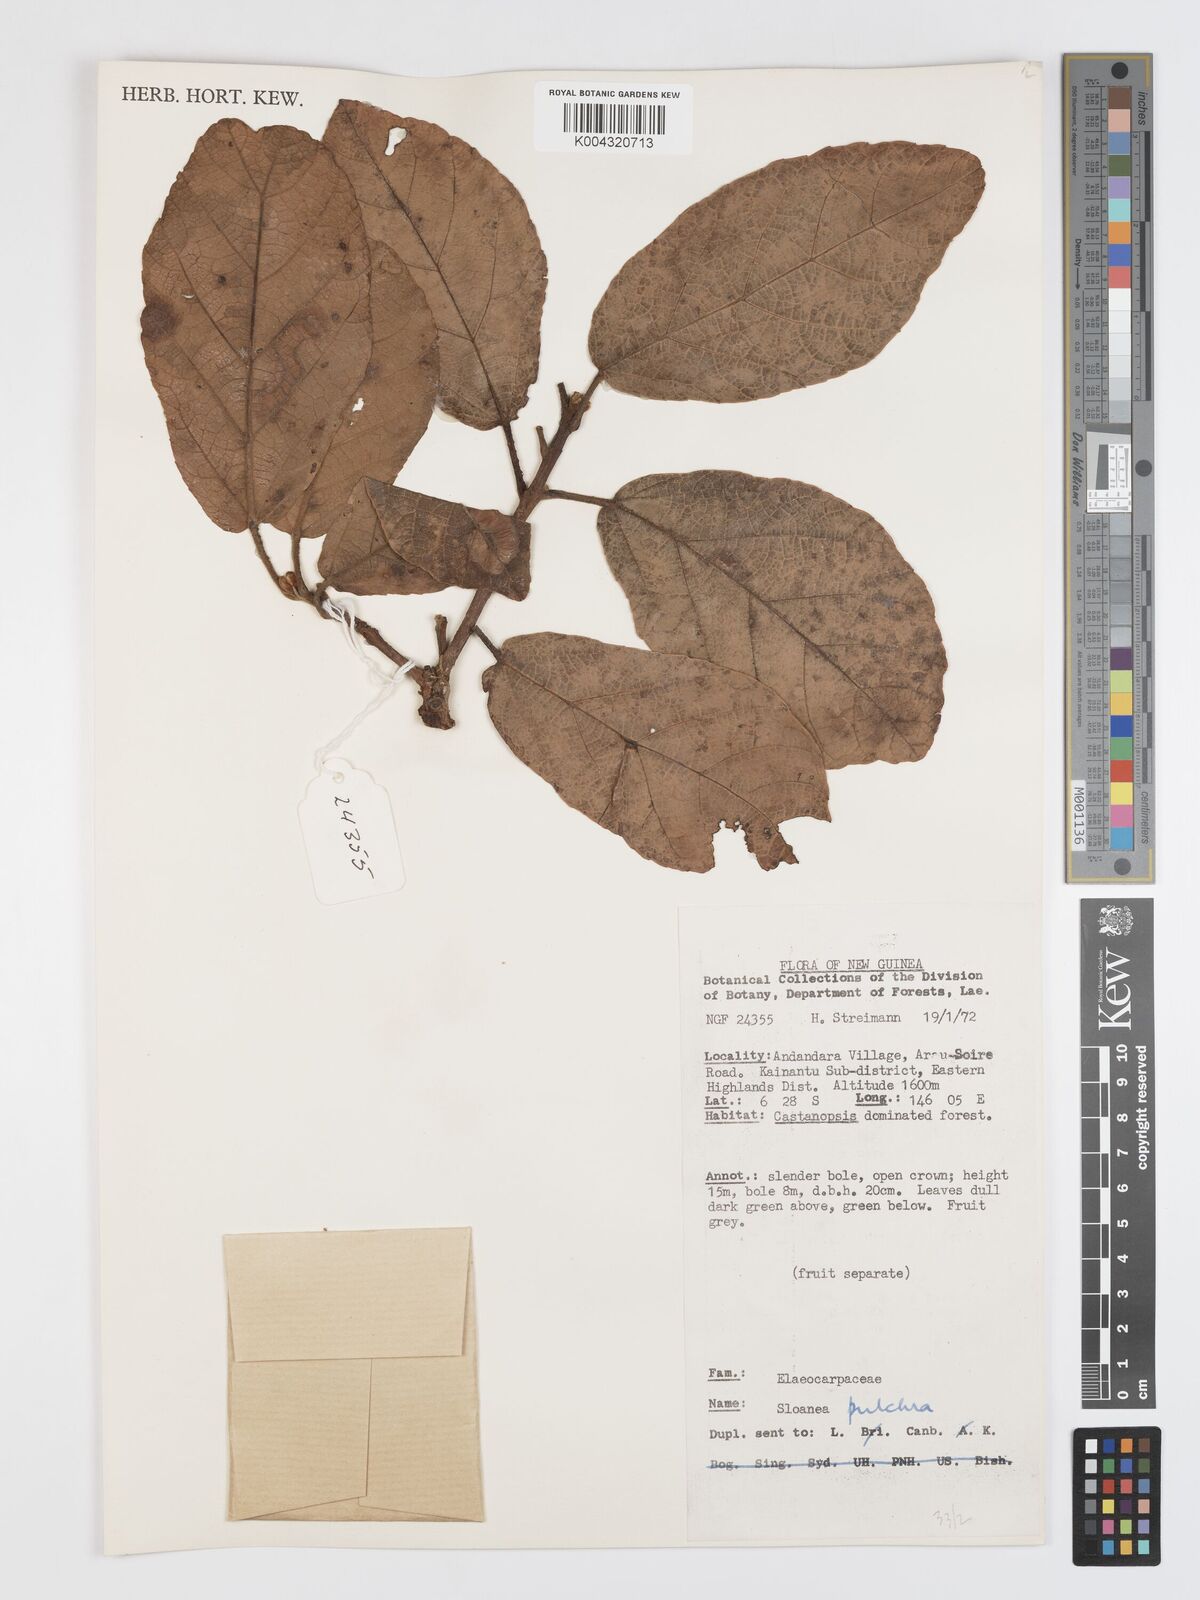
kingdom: Plantae
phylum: Tracheophyta
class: Magnoliopsida
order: Oxalidales
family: Elaeocarpaceae
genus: Sloanea
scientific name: Sloanea pulchra
